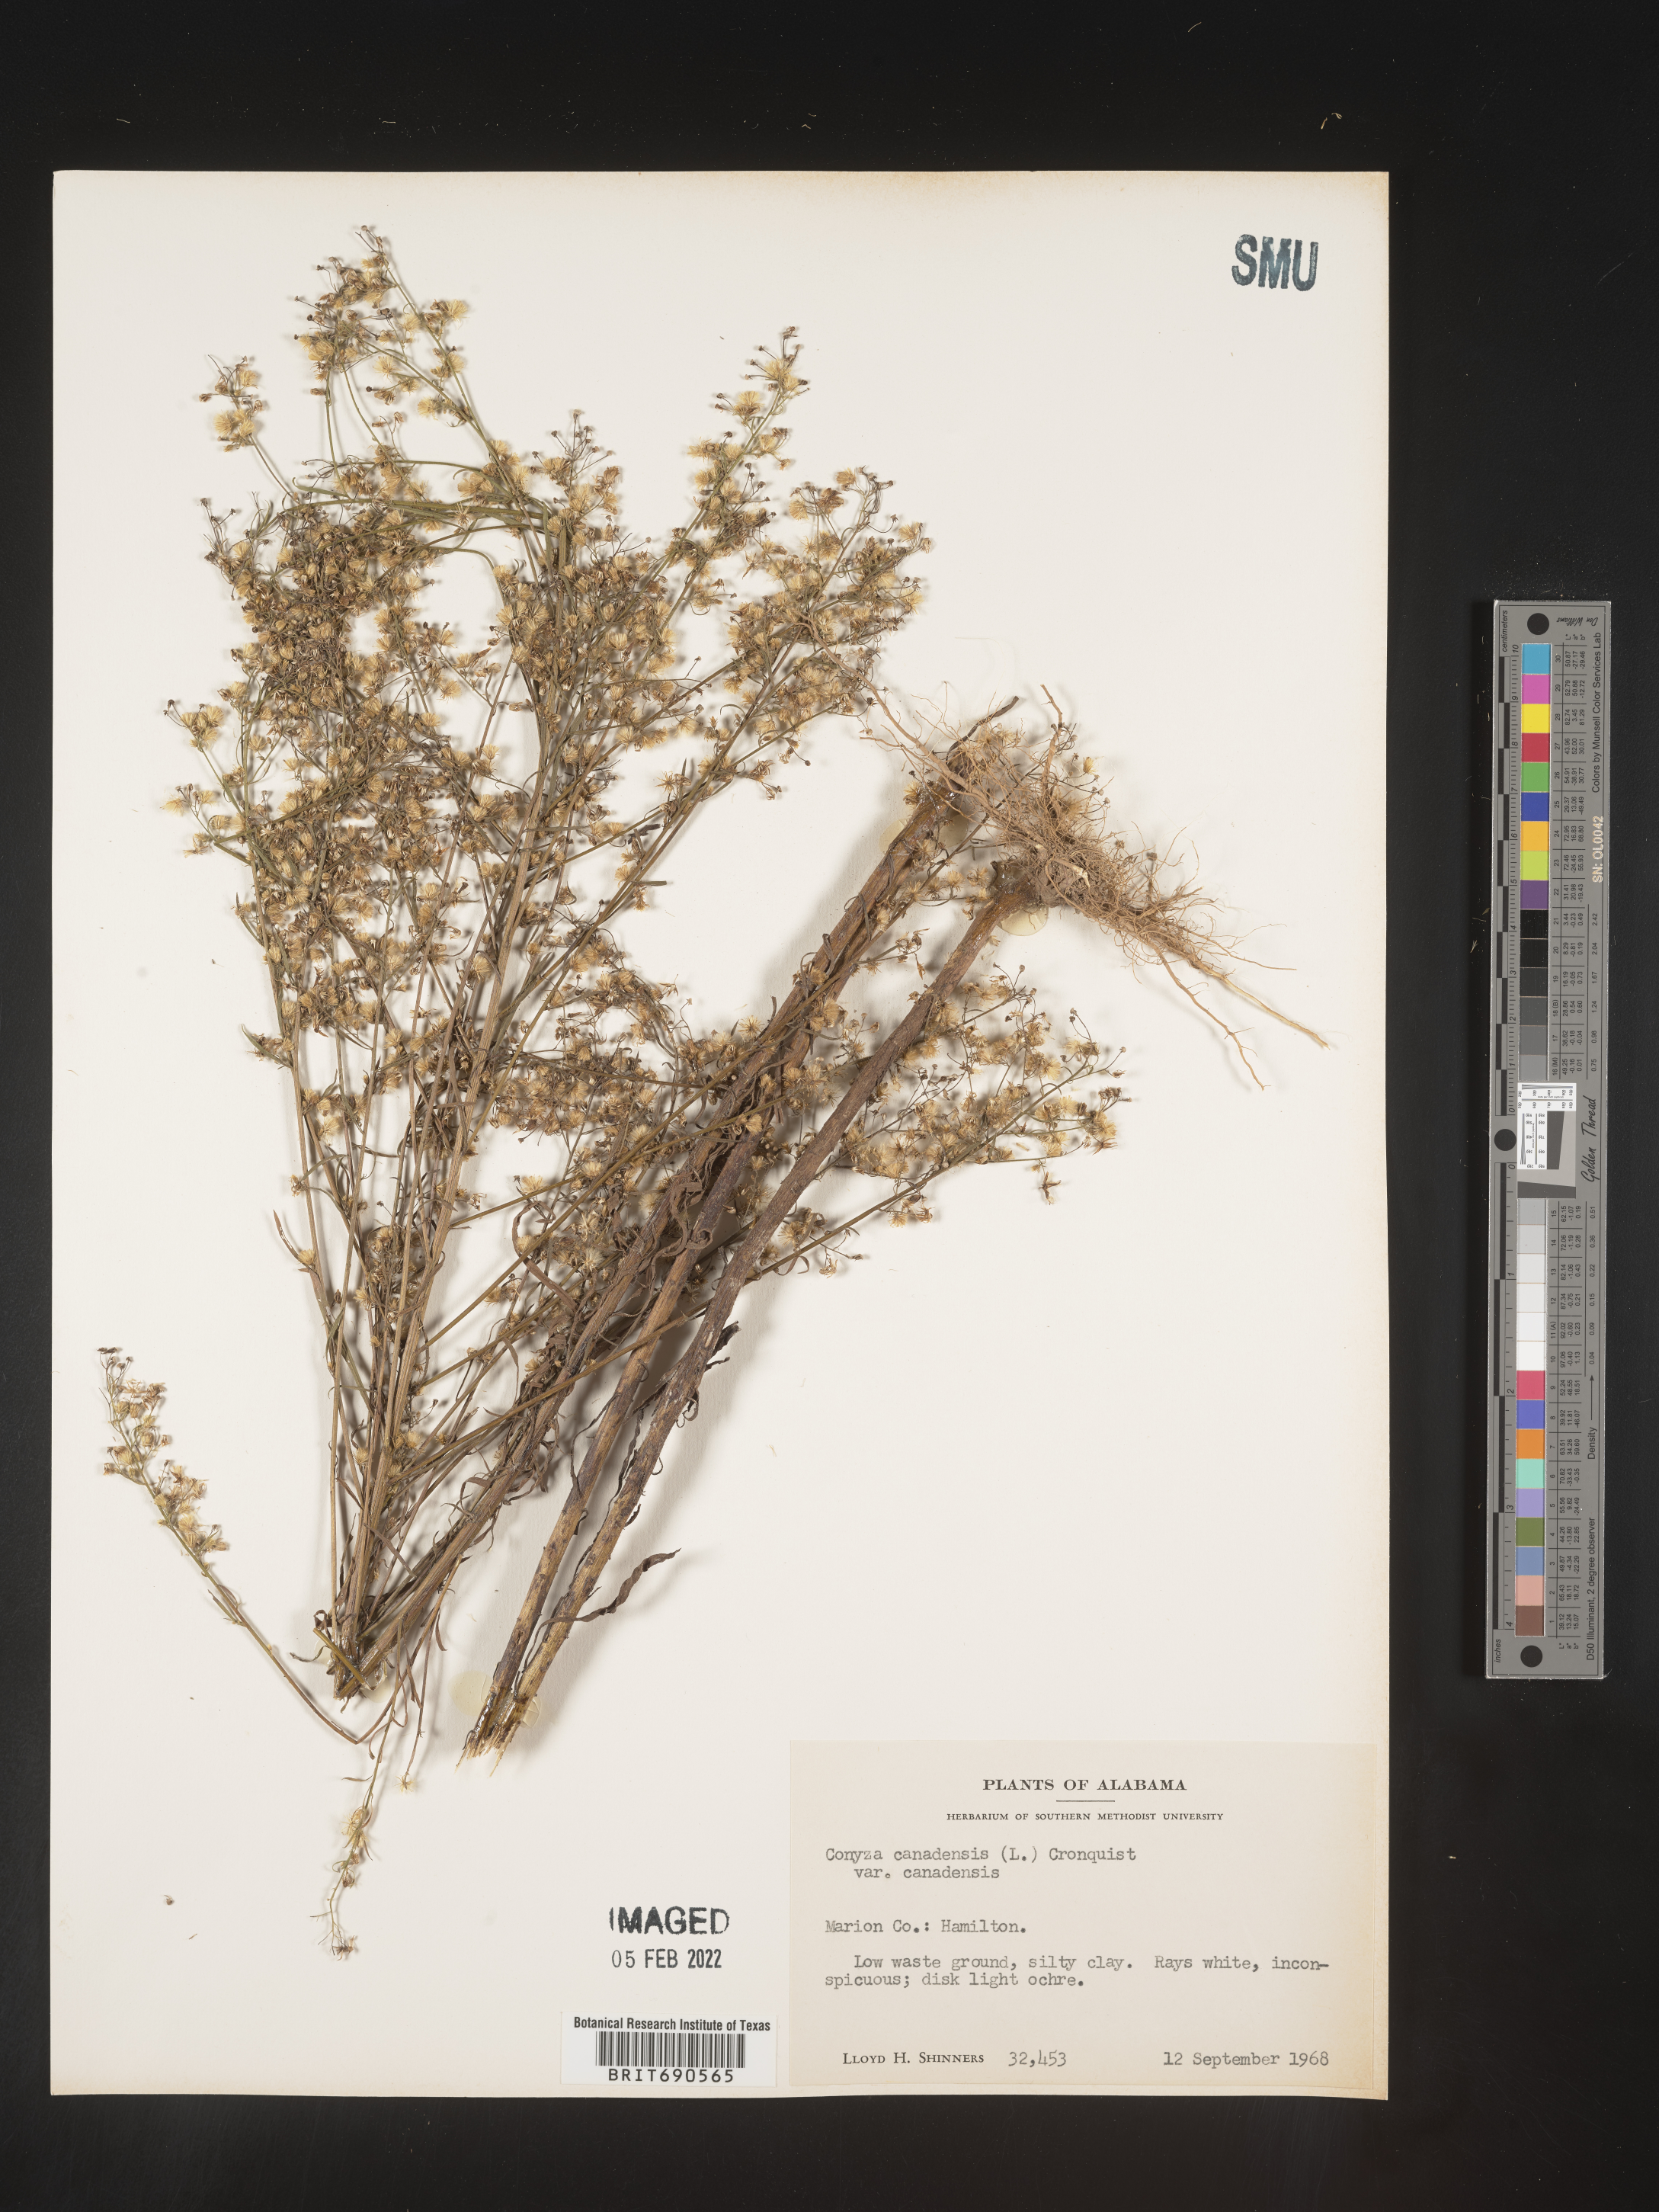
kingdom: Plantae
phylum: Tracheophyta
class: Magnoliopsida
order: Asterales
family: Asteraceae
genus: Erigeron
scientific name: Erigeron canadensis
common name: Canadian fleabane
